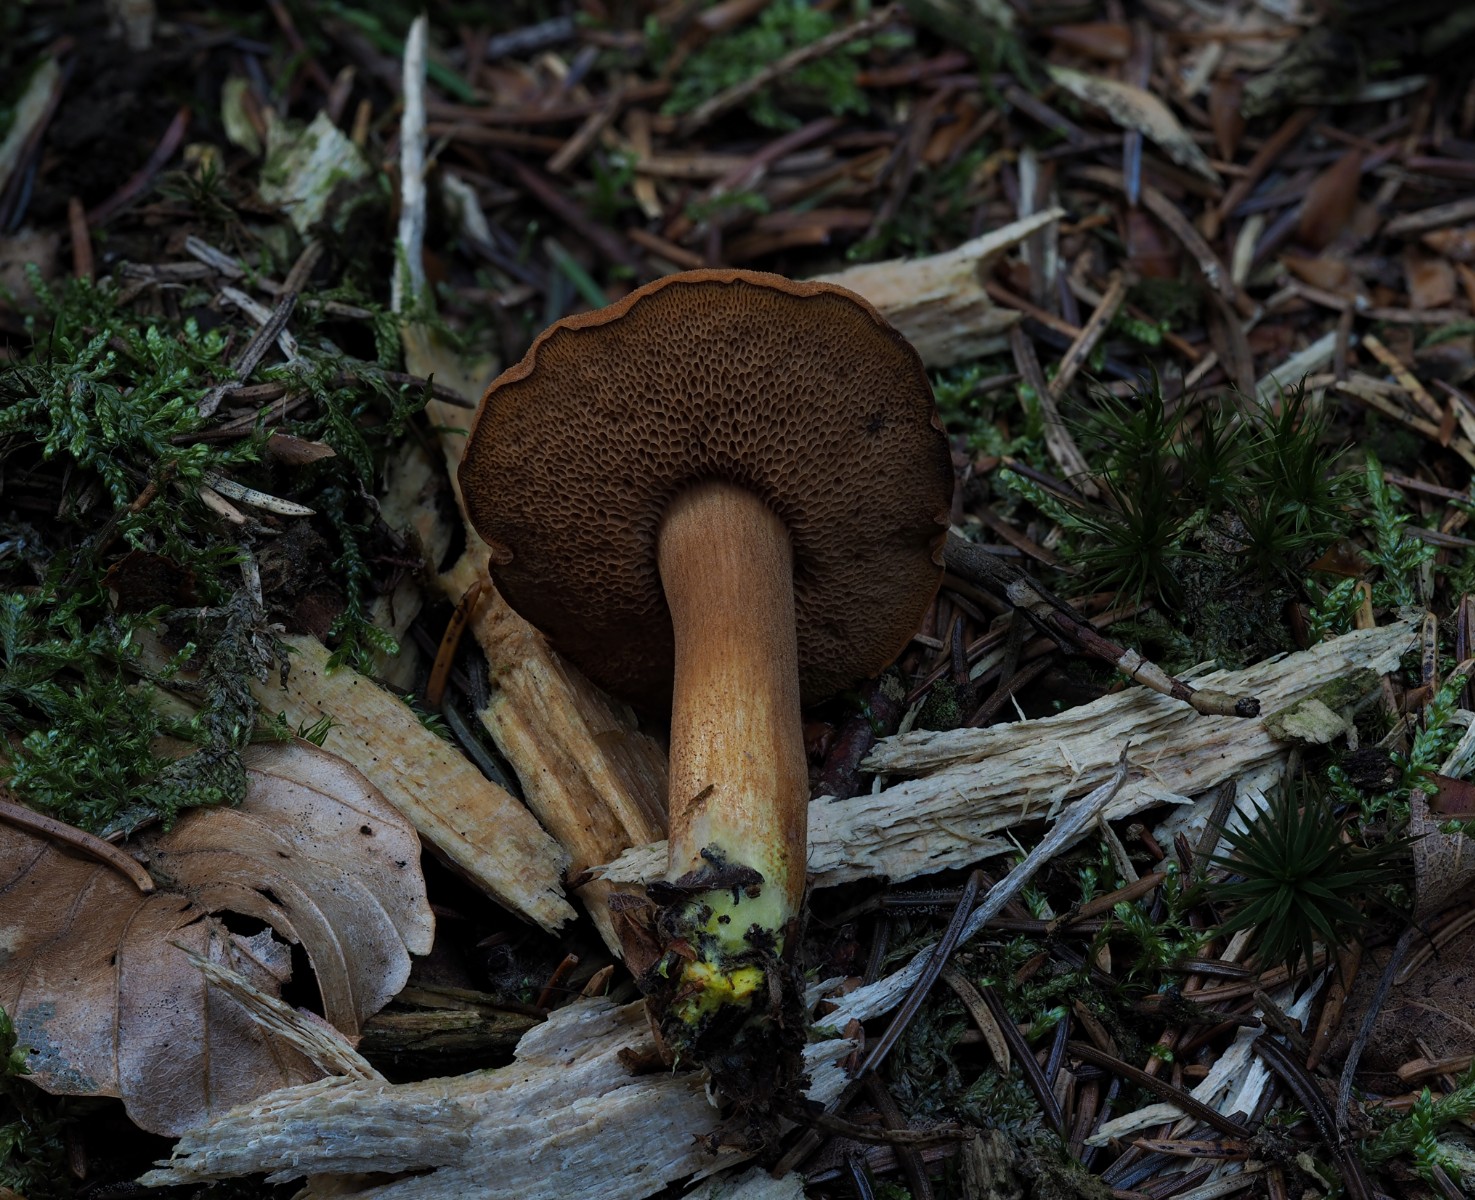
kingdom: Fungi
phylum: Basidiomycota
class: Agaricomycetes
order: Boletales
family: Boletaceae
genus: Chalciporus
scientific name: Chalciporus piperatus
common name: peberrørhat
